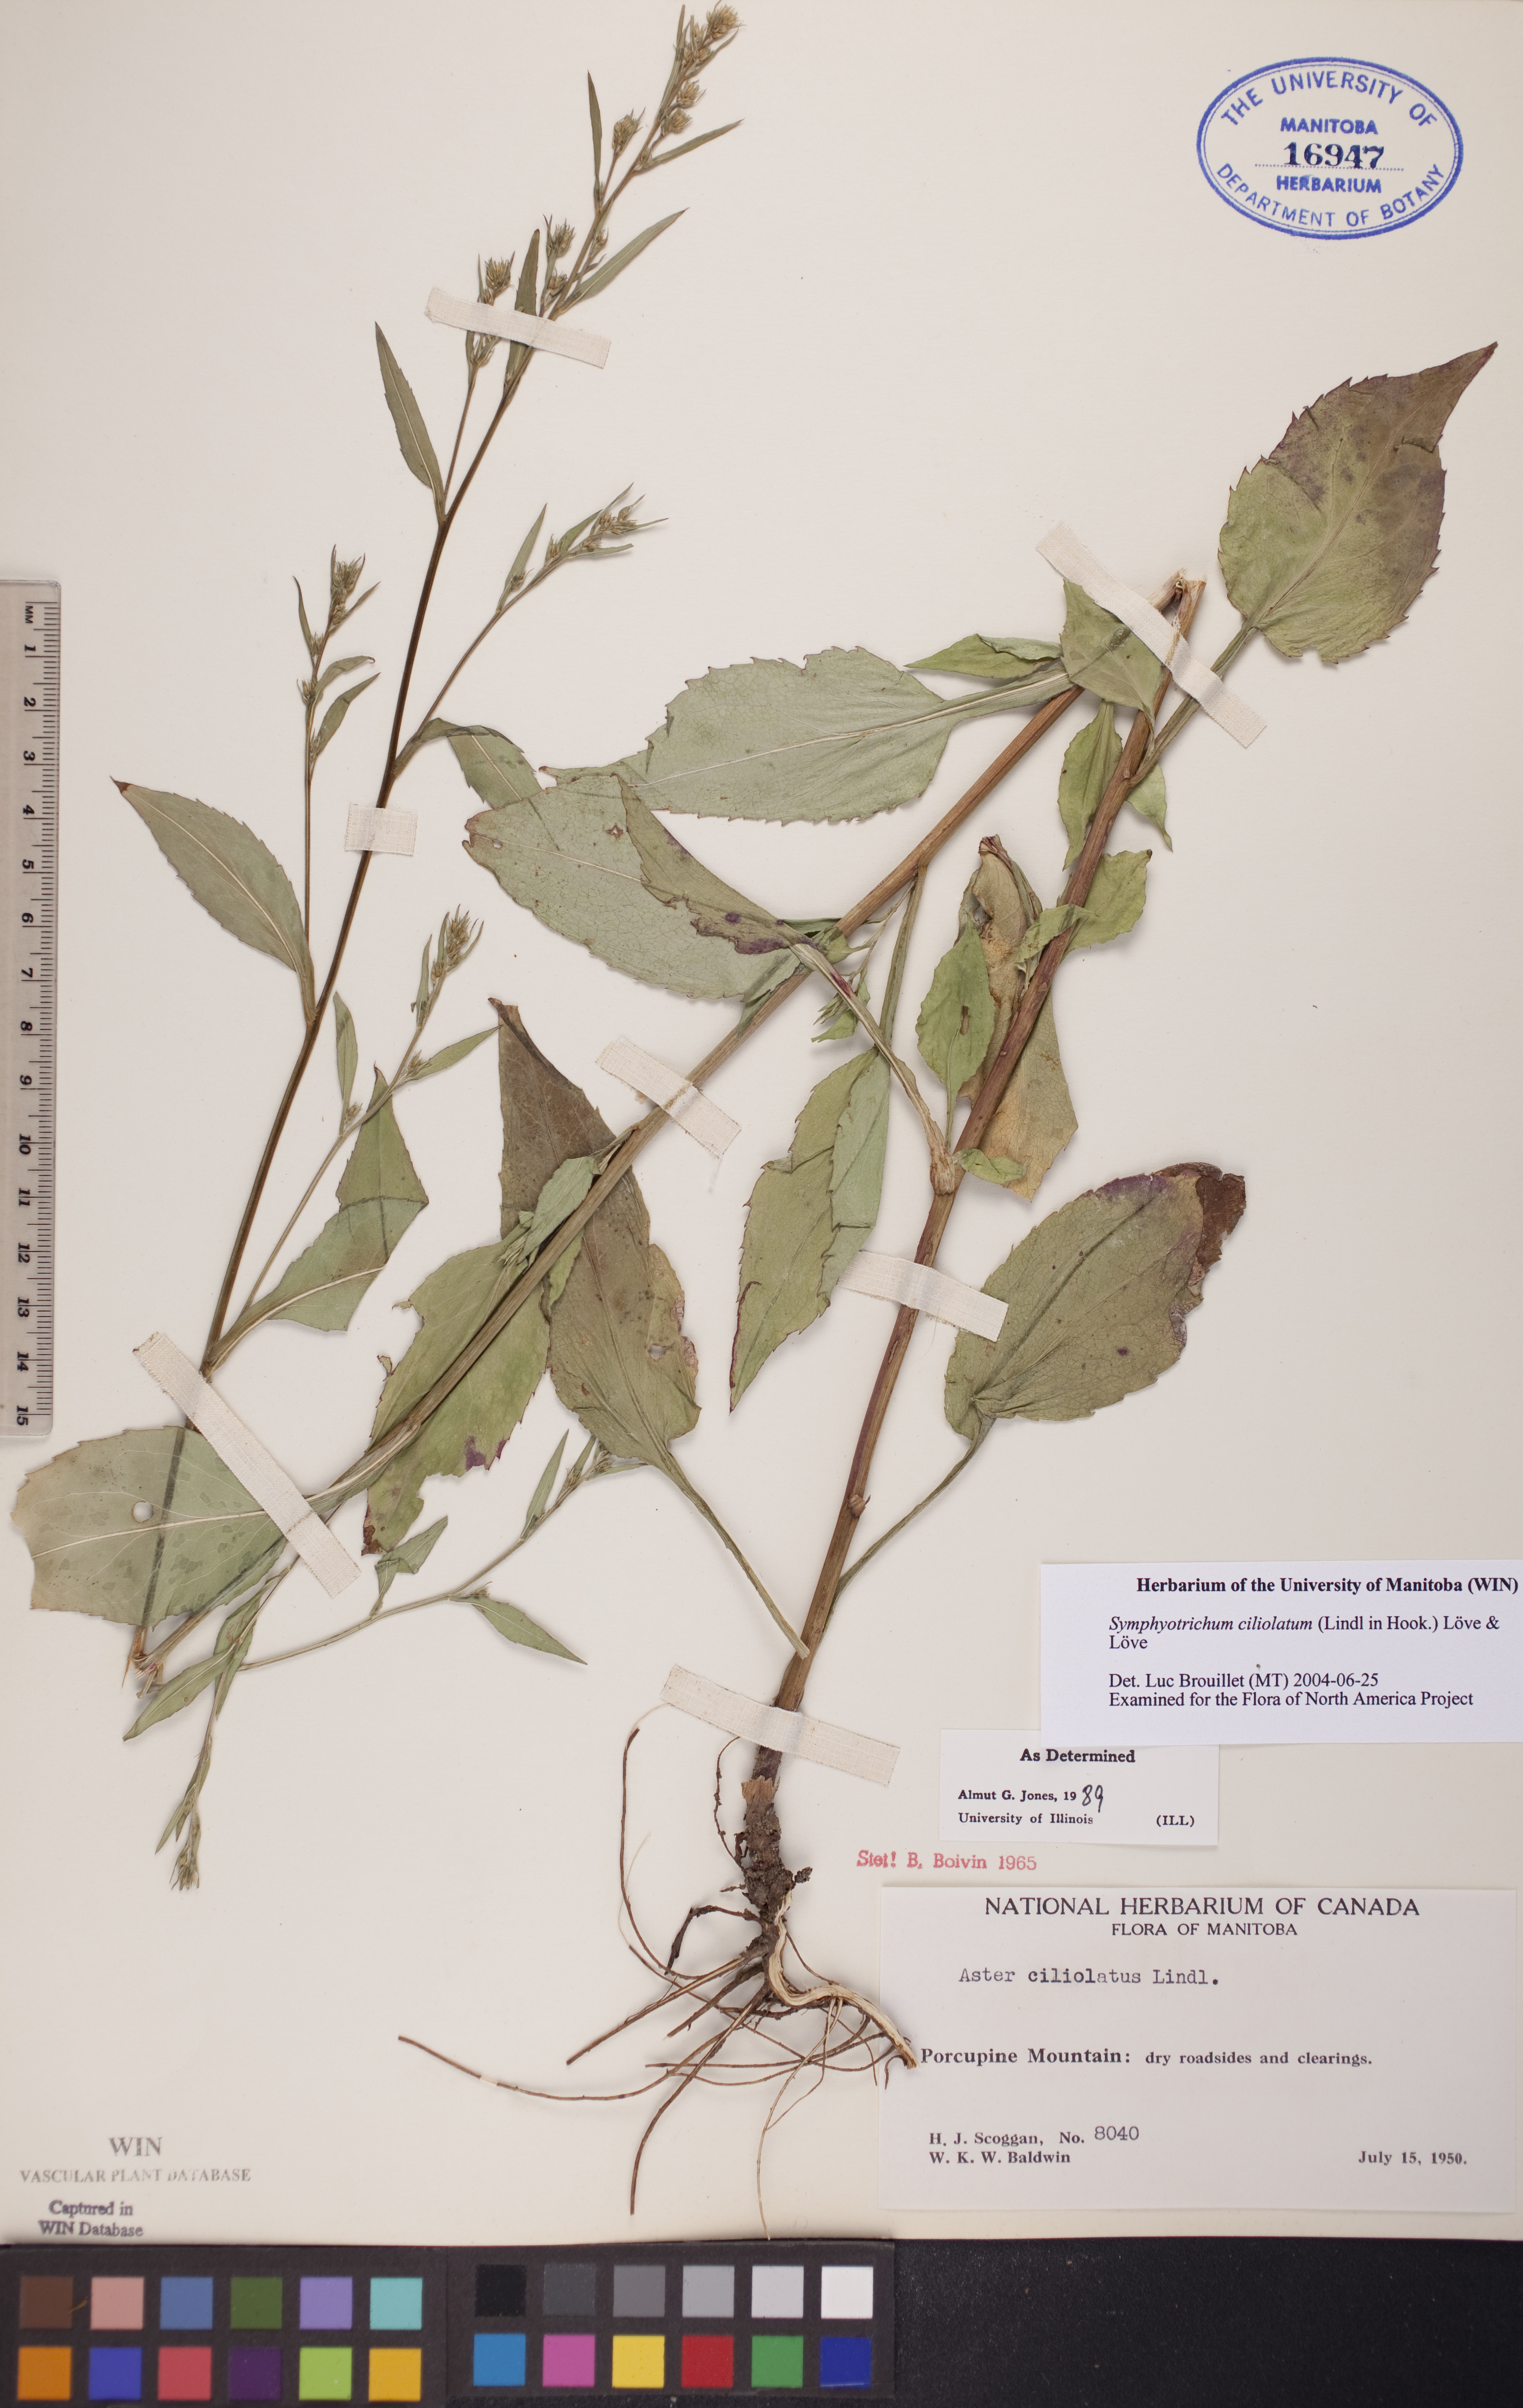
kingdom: Plantae
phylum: Tracheophyta
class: Magnoliopsida
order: Asterales
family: Asteraceae
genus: Symphyotrichum
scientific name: Symphyotrichum ciliolatum
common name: Fringed blue aster
